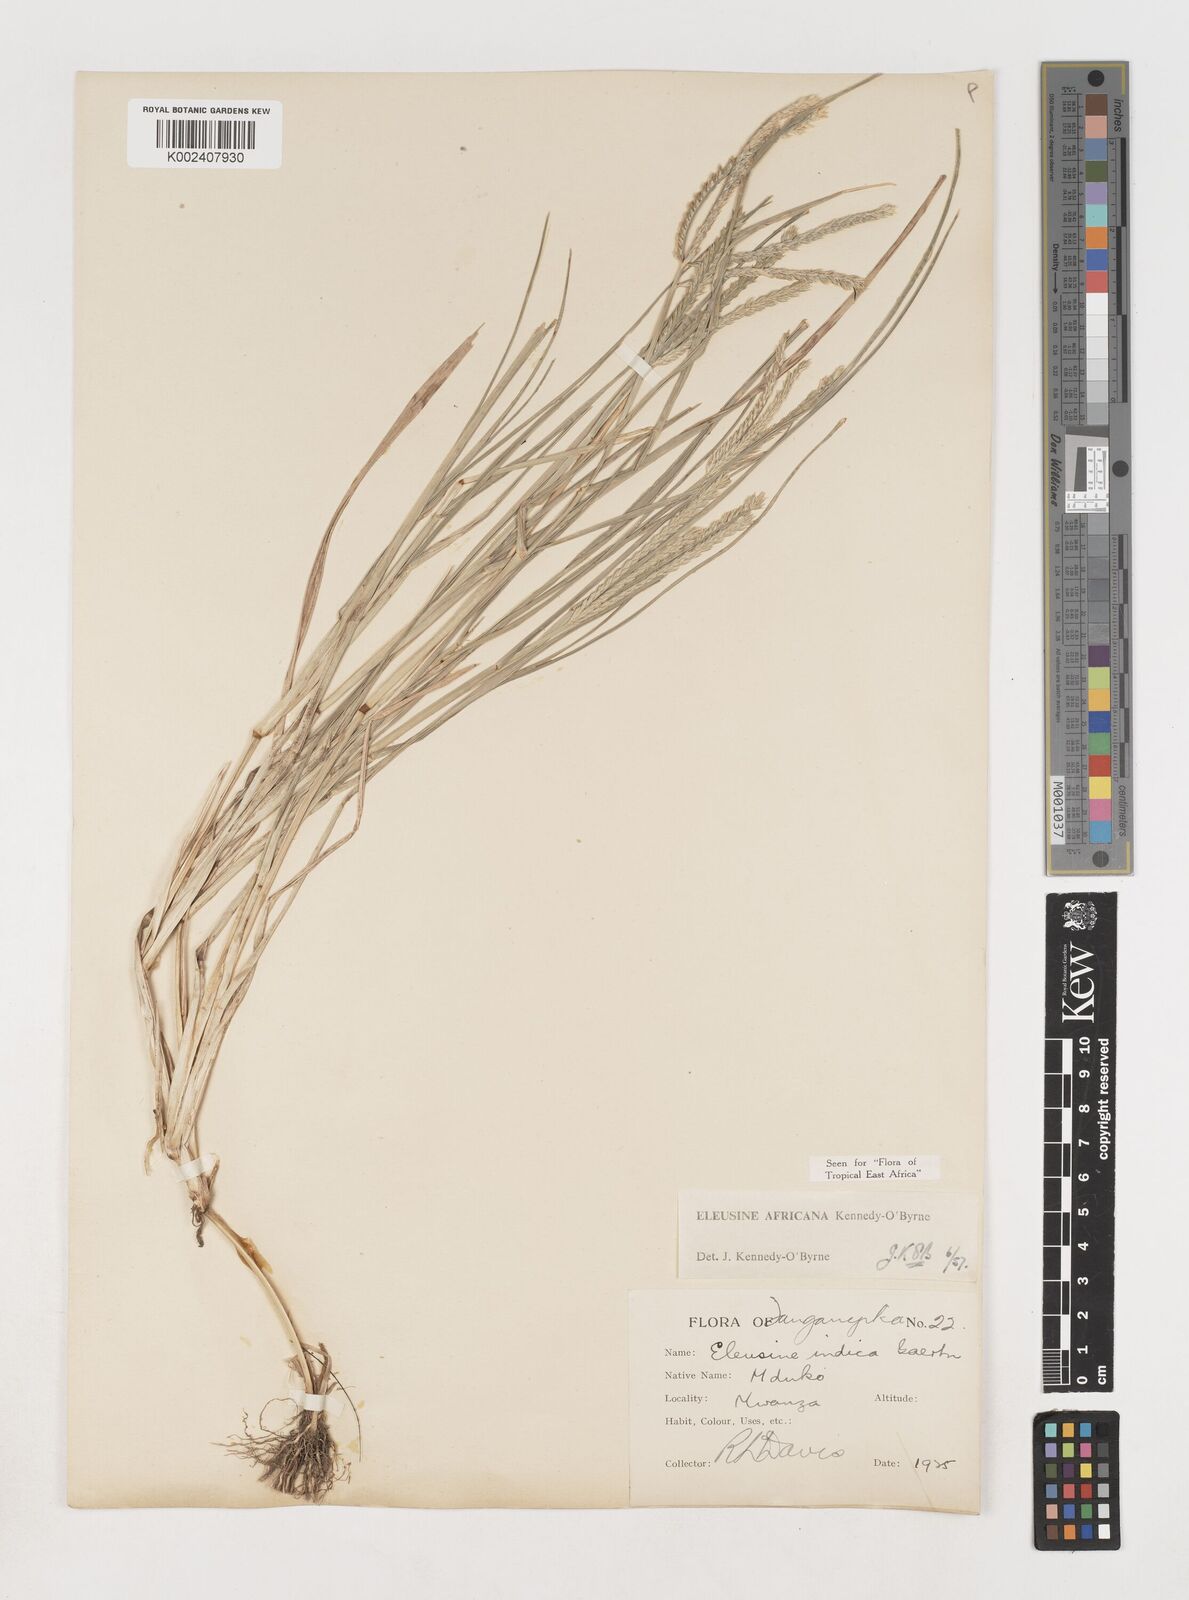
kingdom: Plantae
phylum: Tracheophyta
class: Liliopsida
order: Poales
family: Poaceae
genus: Eleusine
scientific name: Eleusine africana
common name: Wild african finger millet
